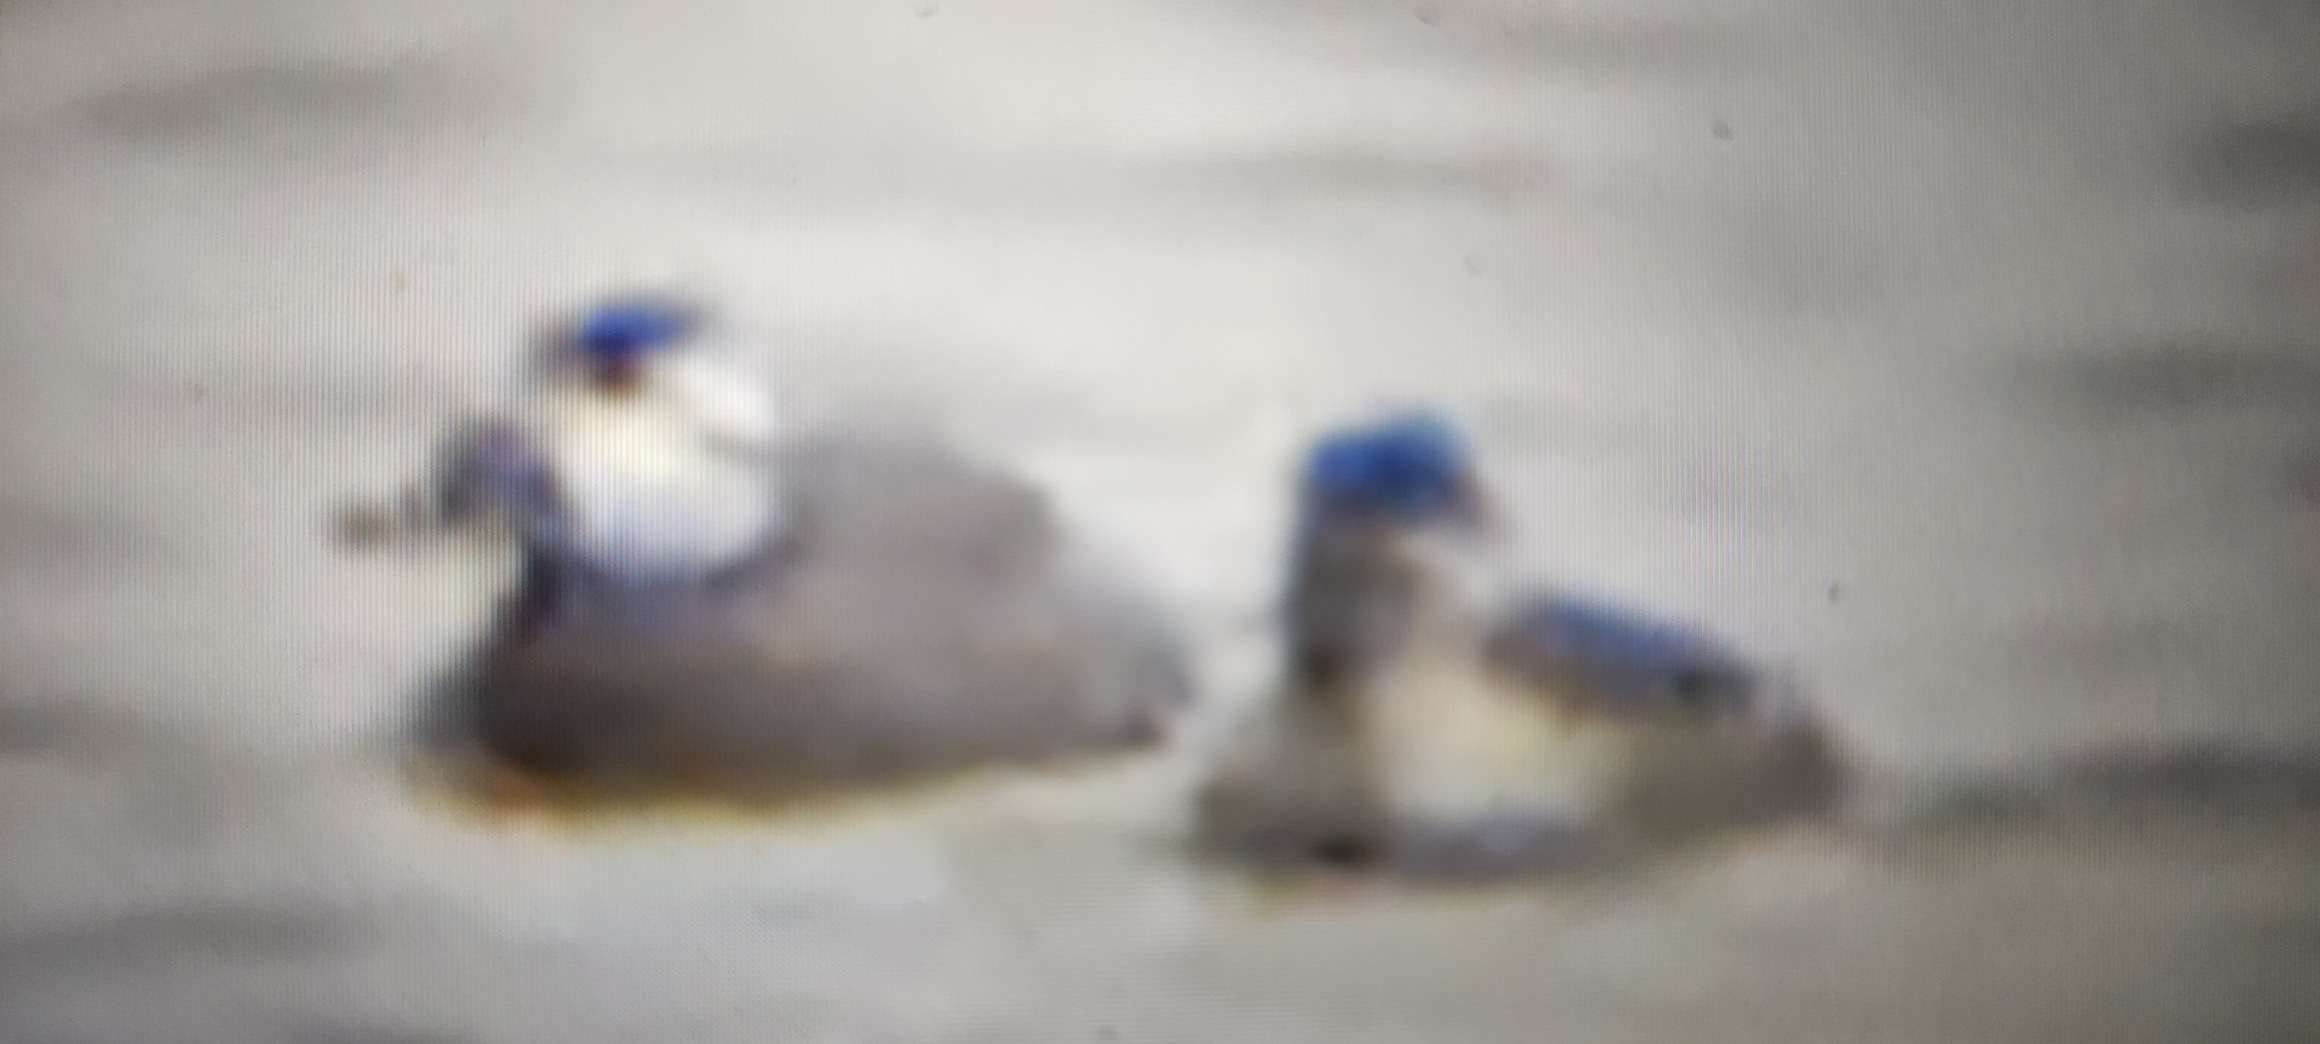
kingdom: Animalia
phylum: Chordata
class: Aves
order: Anseriformes
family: Anatidae
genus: Oxyura
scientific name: Oxyura jamaicensis
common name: Amerikansk skarveand
